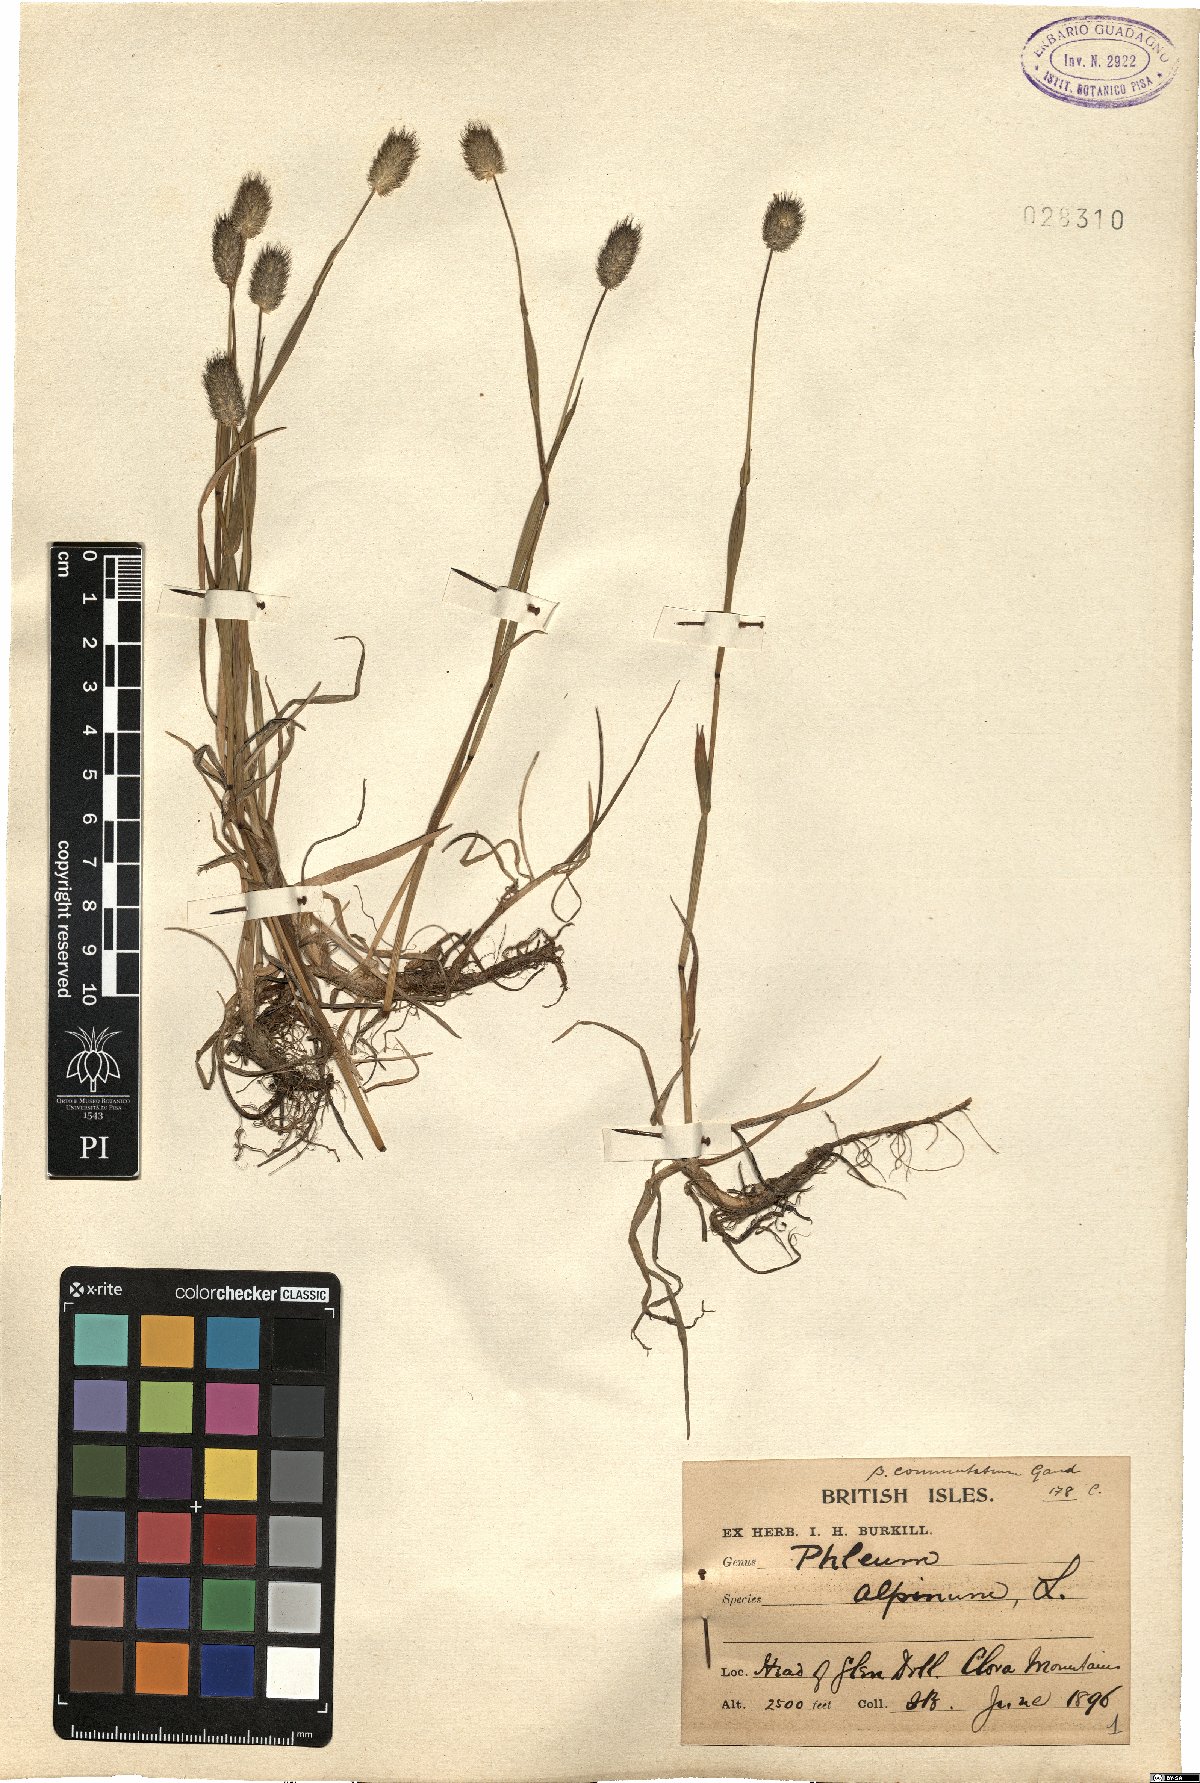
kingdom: Plantae
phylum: Tracheophyta
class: Liliopsida
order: Poales
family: Poaceae
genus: Phleum
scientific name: Phleum alpinum
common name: Alpine cat's-tail
